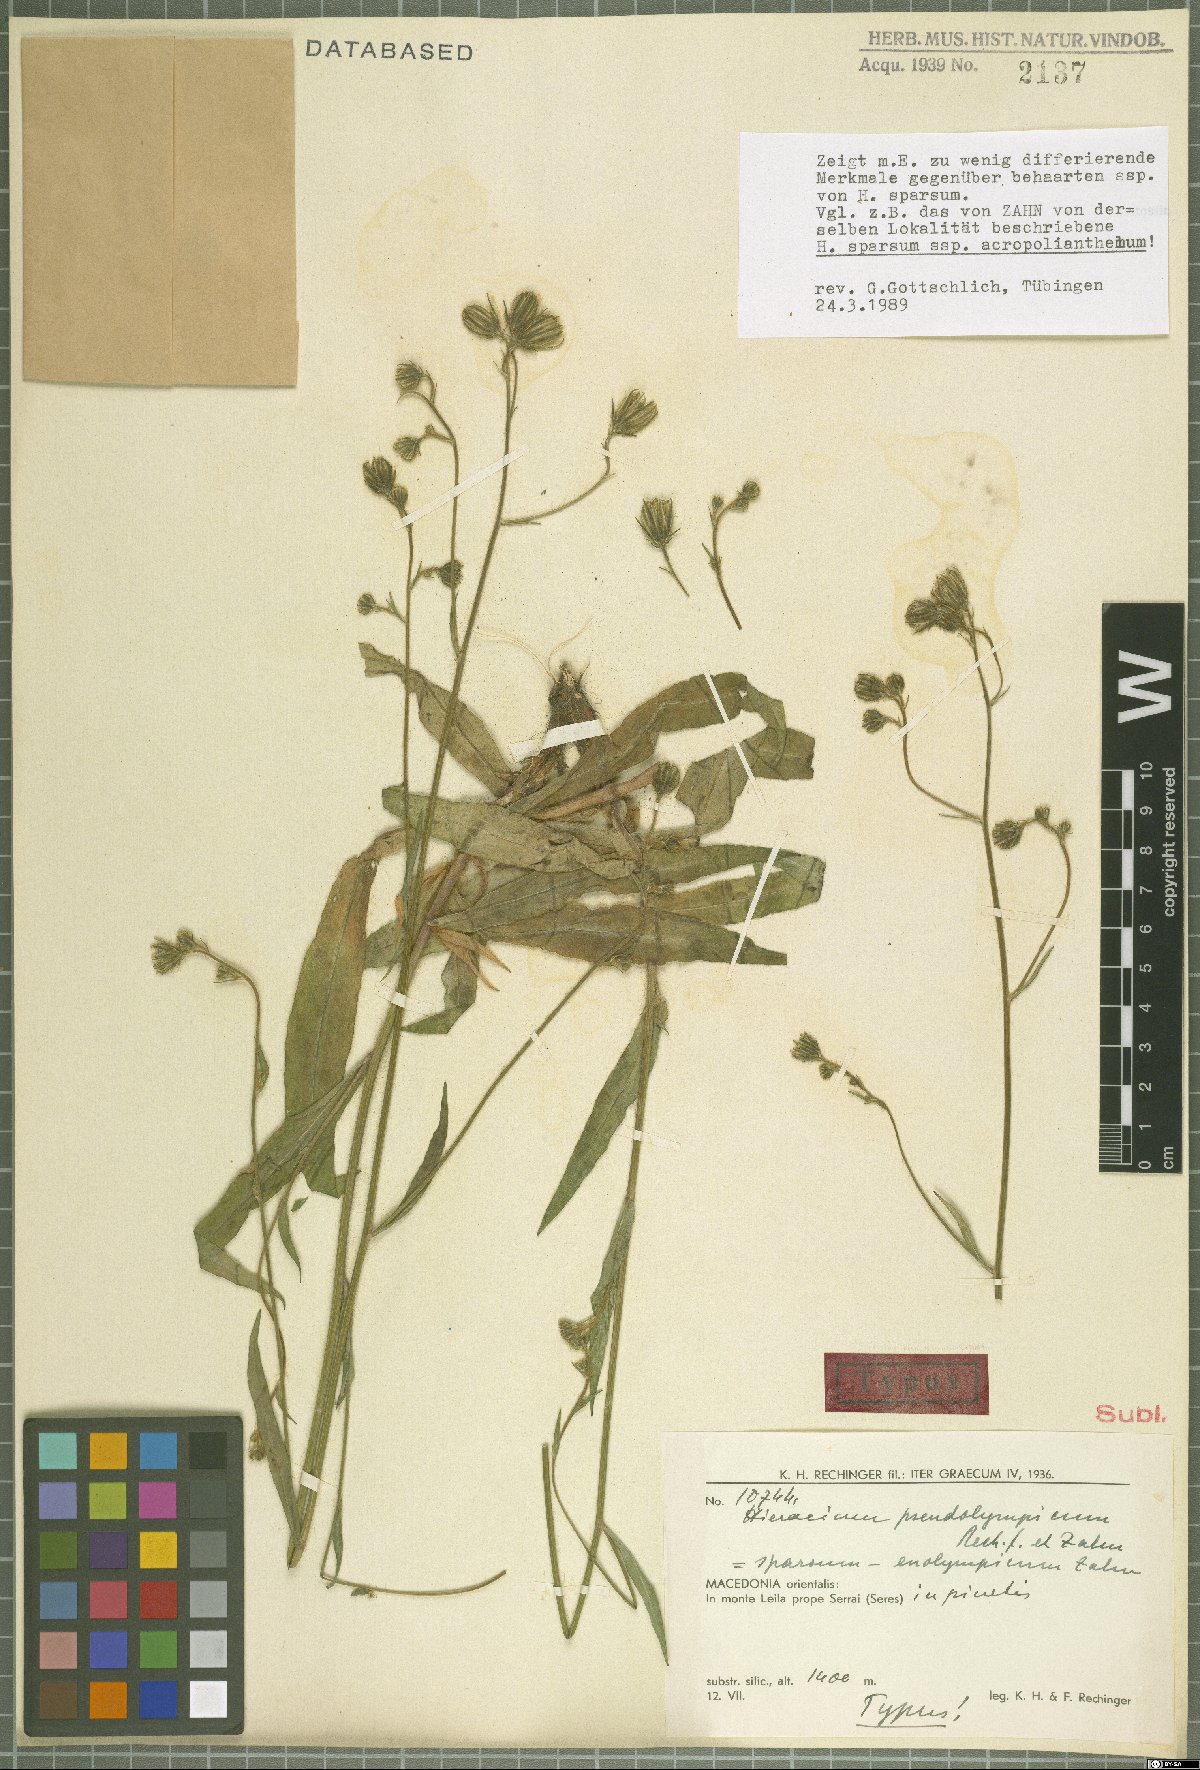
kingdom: Plantae
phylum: Tracheophyta
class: Magnoliopsida
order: Asterales
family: Asteraceae
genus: Hieracium
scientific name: Hieracium sparsum
